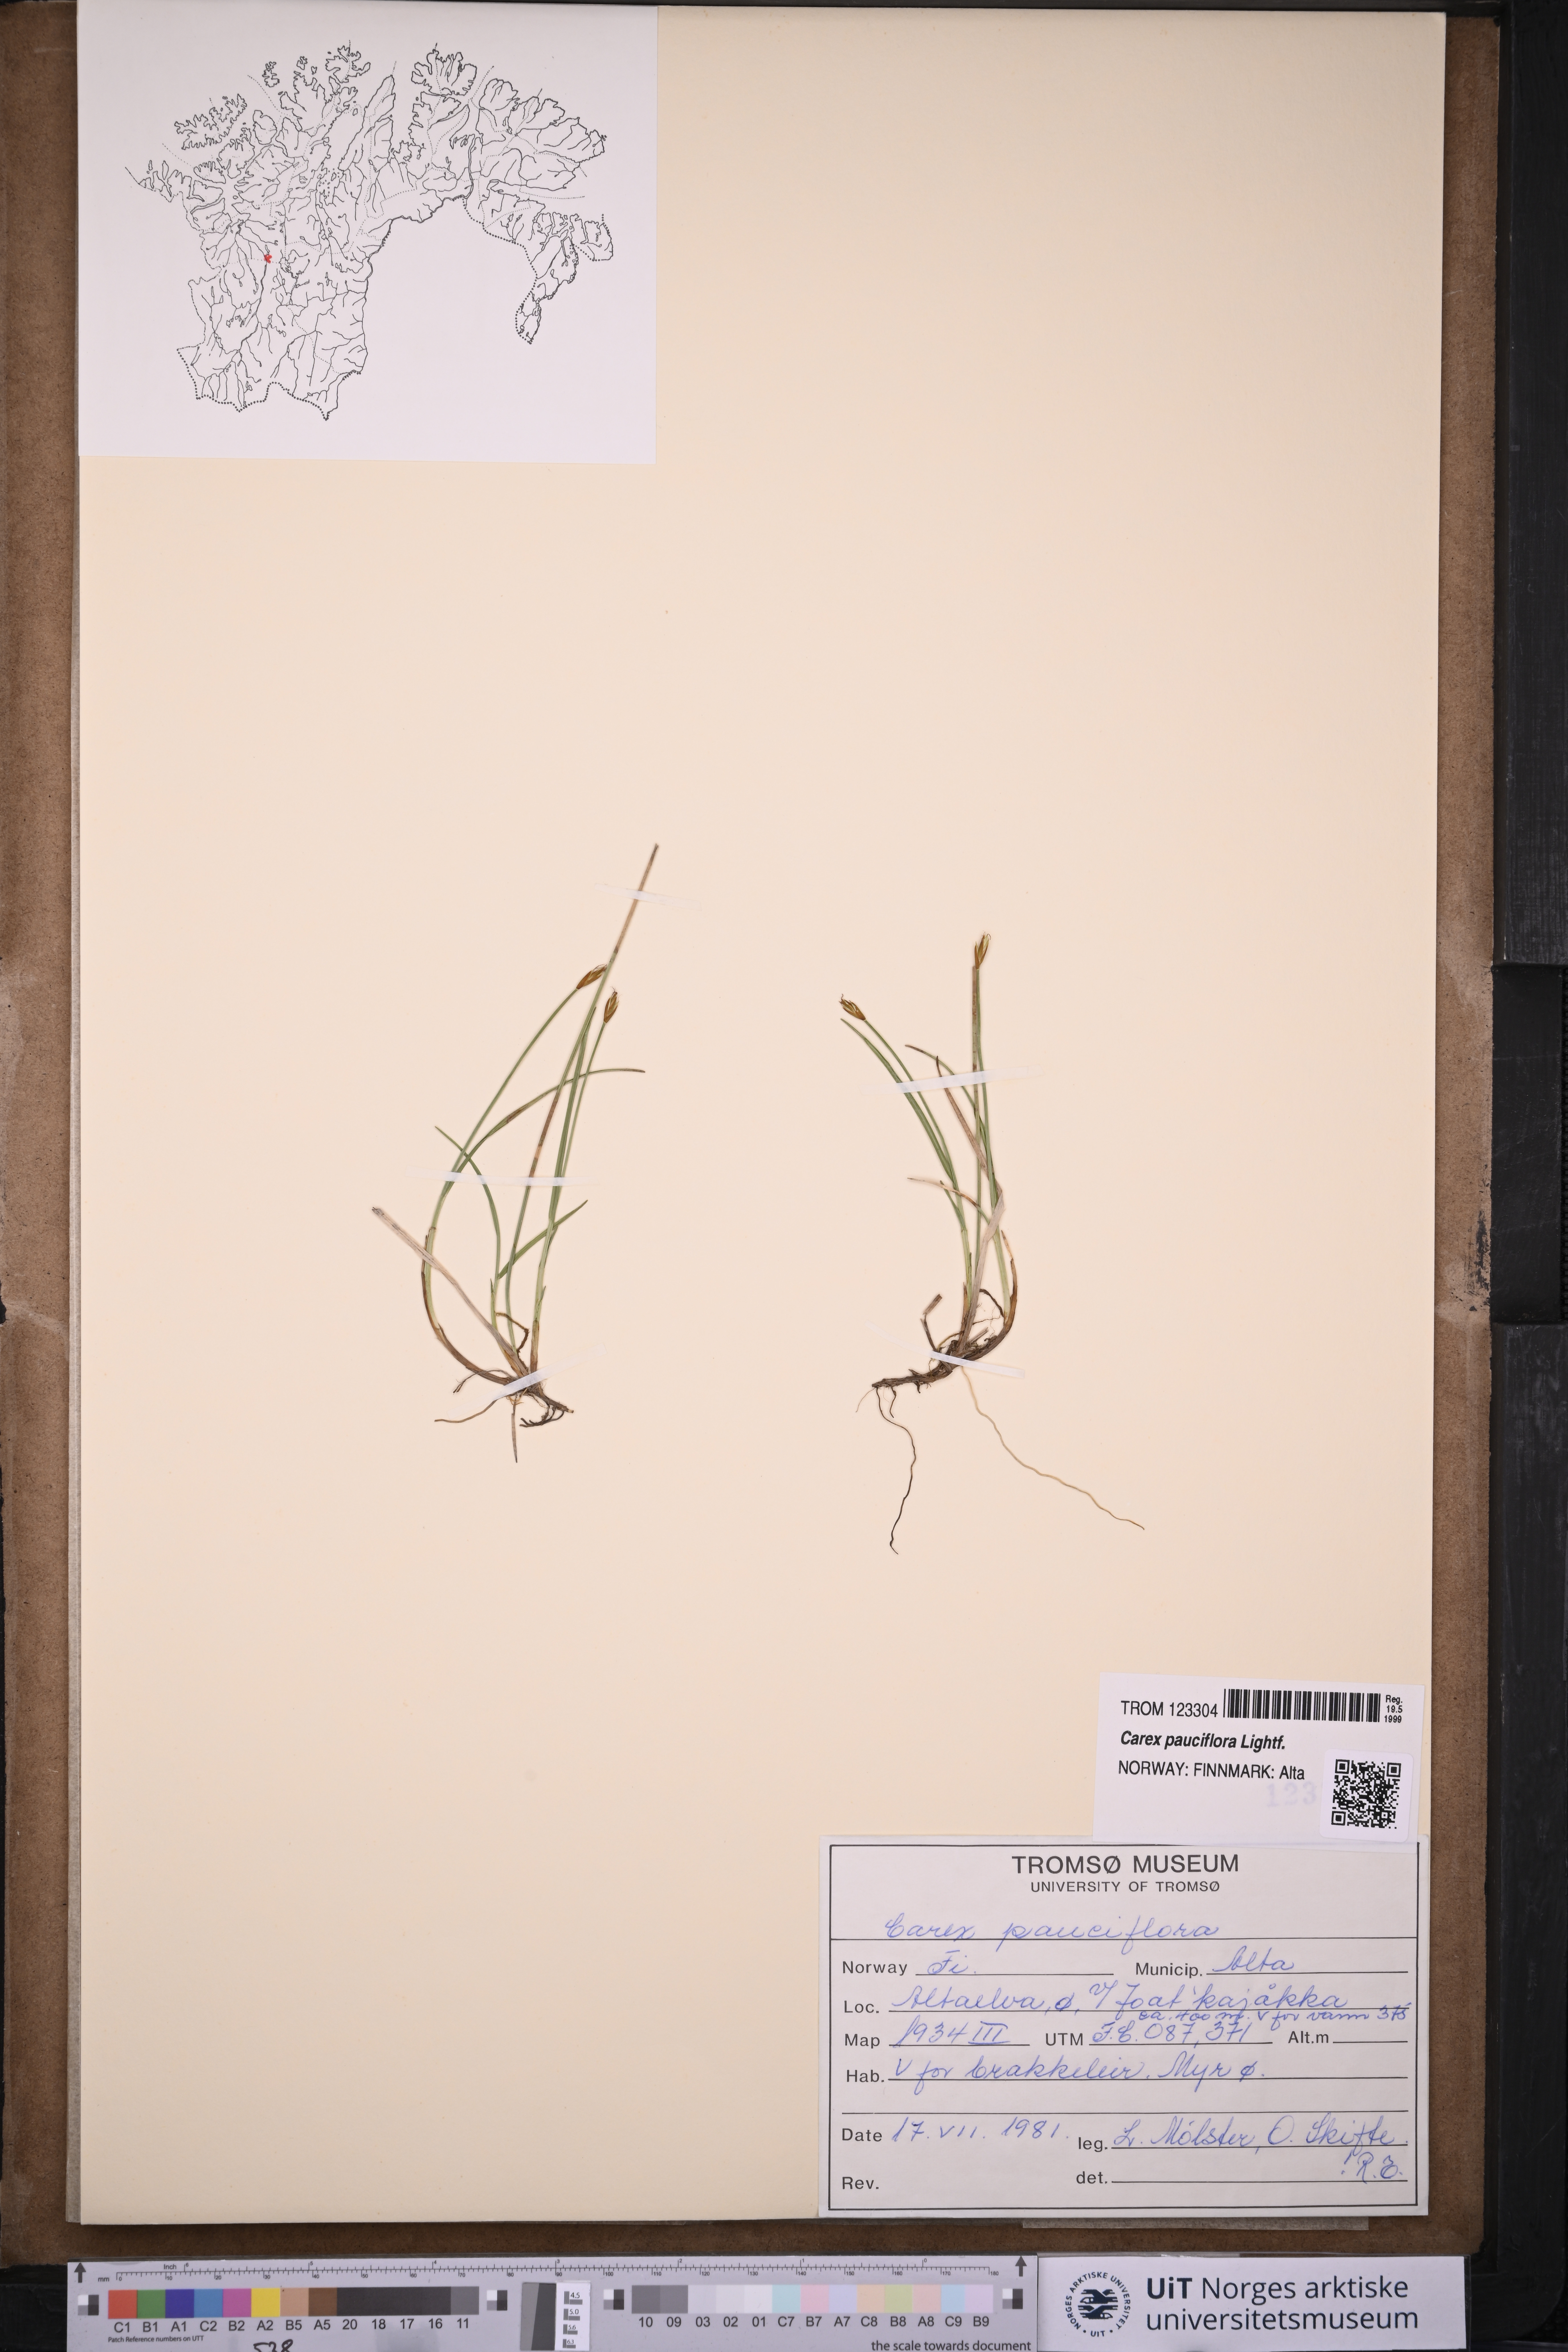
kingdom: Plantae
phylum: Tracheophyta
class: Liliopsida
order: Poales
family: Cyperaceae
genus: Carex
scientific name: Carex pauciflora
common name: Few-flowered sedge
